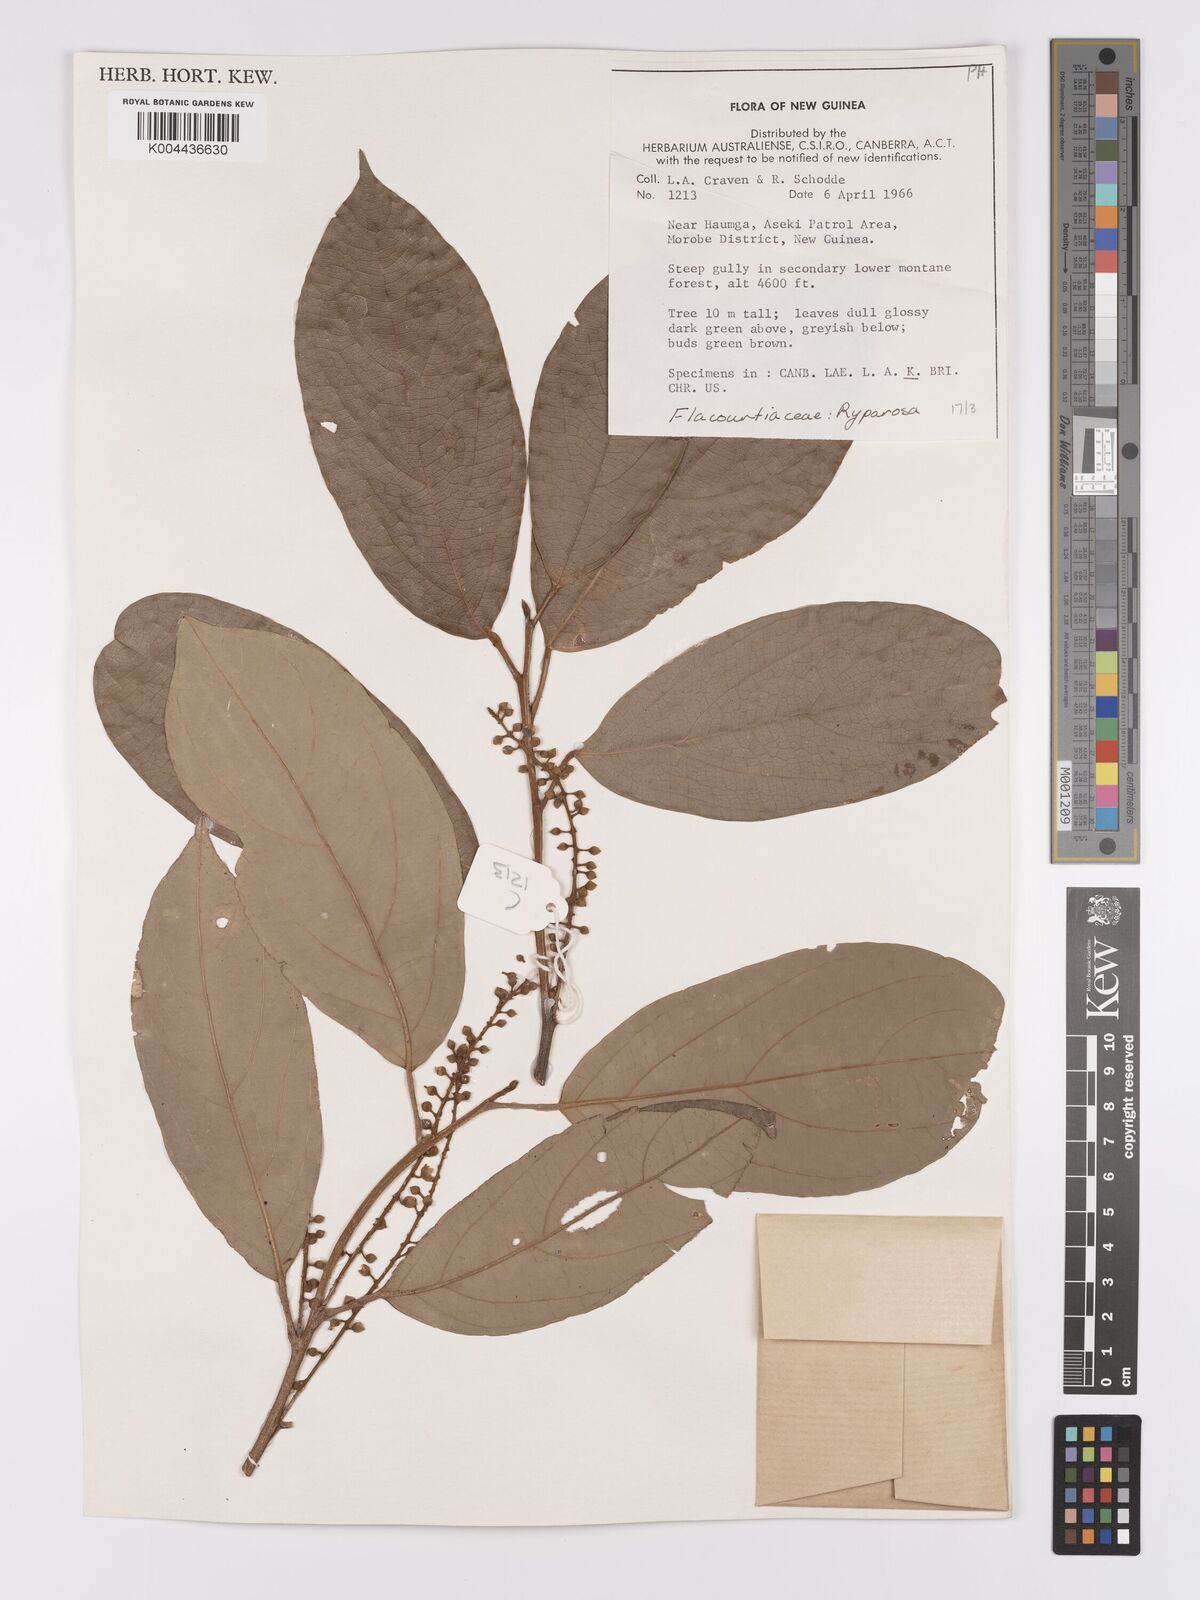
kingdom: Plantae
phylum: Tracheophyta
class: Magnoliopsida
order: Malpighiales
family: Achariaceae
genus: Ryparosa
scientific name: Ryparosa
